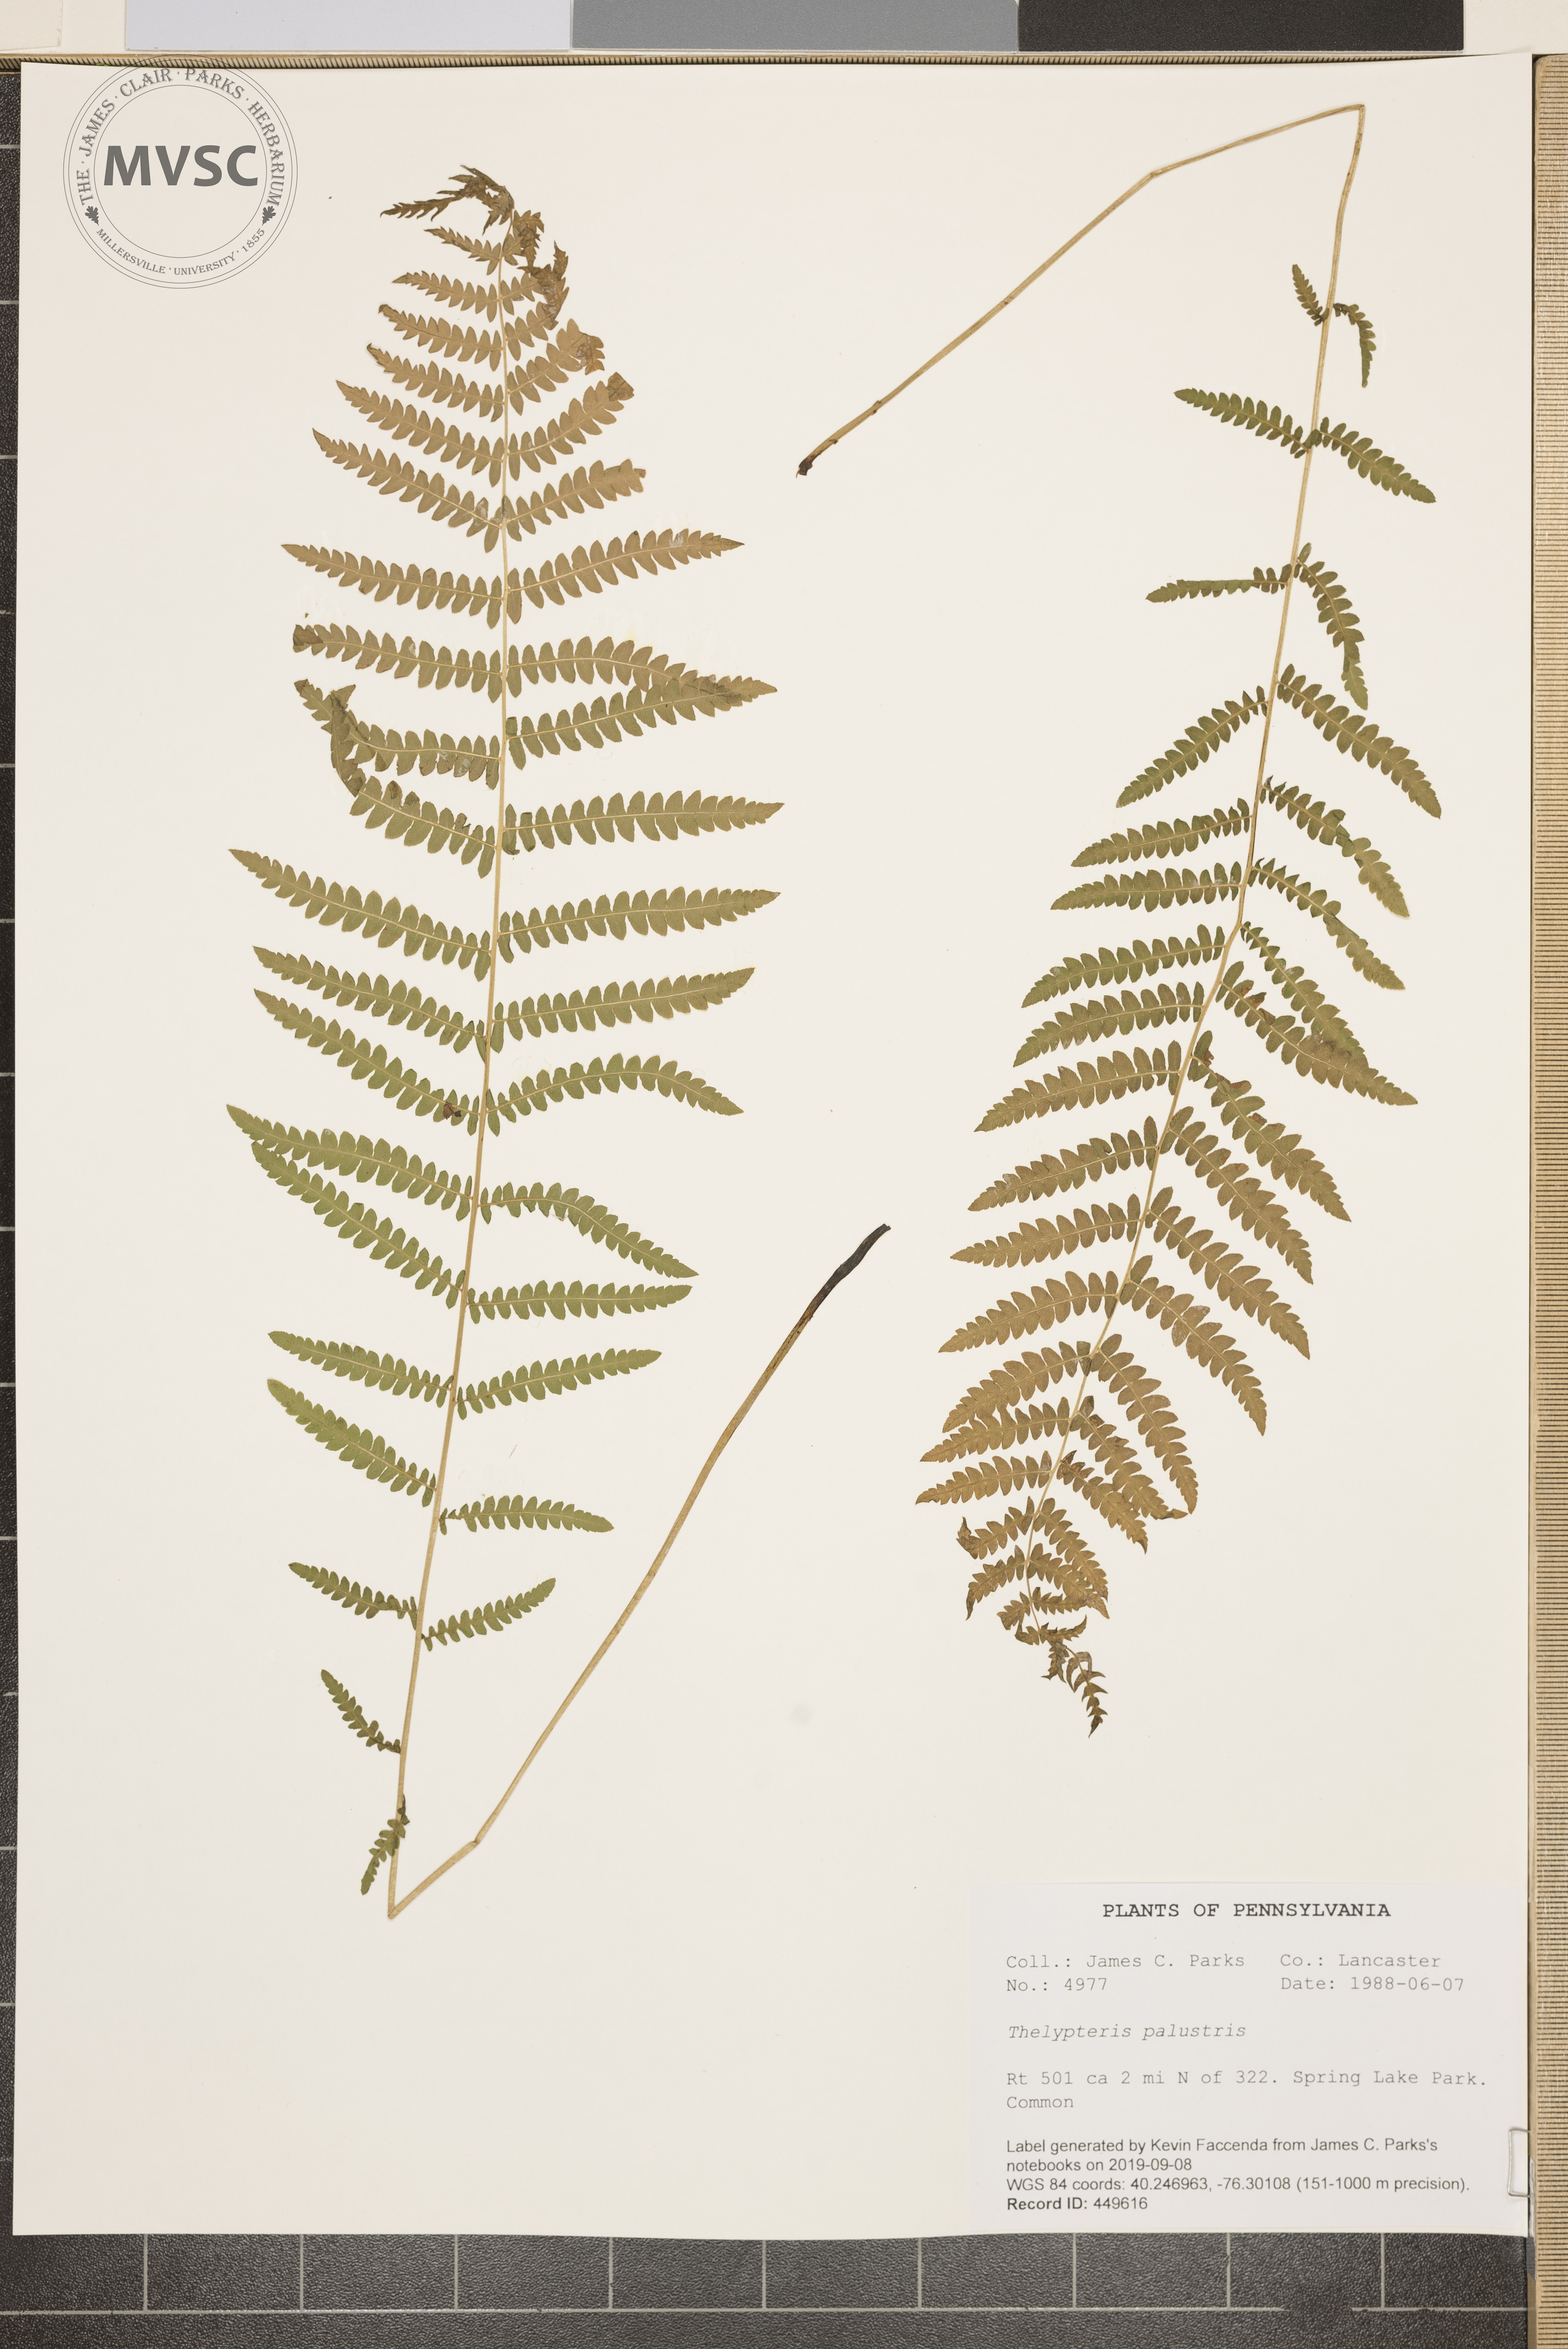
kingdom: Plantae
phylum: Tracheophyta
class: Polypodiopsida
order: Polypodiales
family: Thelypteridaceae
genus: Thelypteris
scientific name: Thelypteris palustris
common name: Marsh fern
